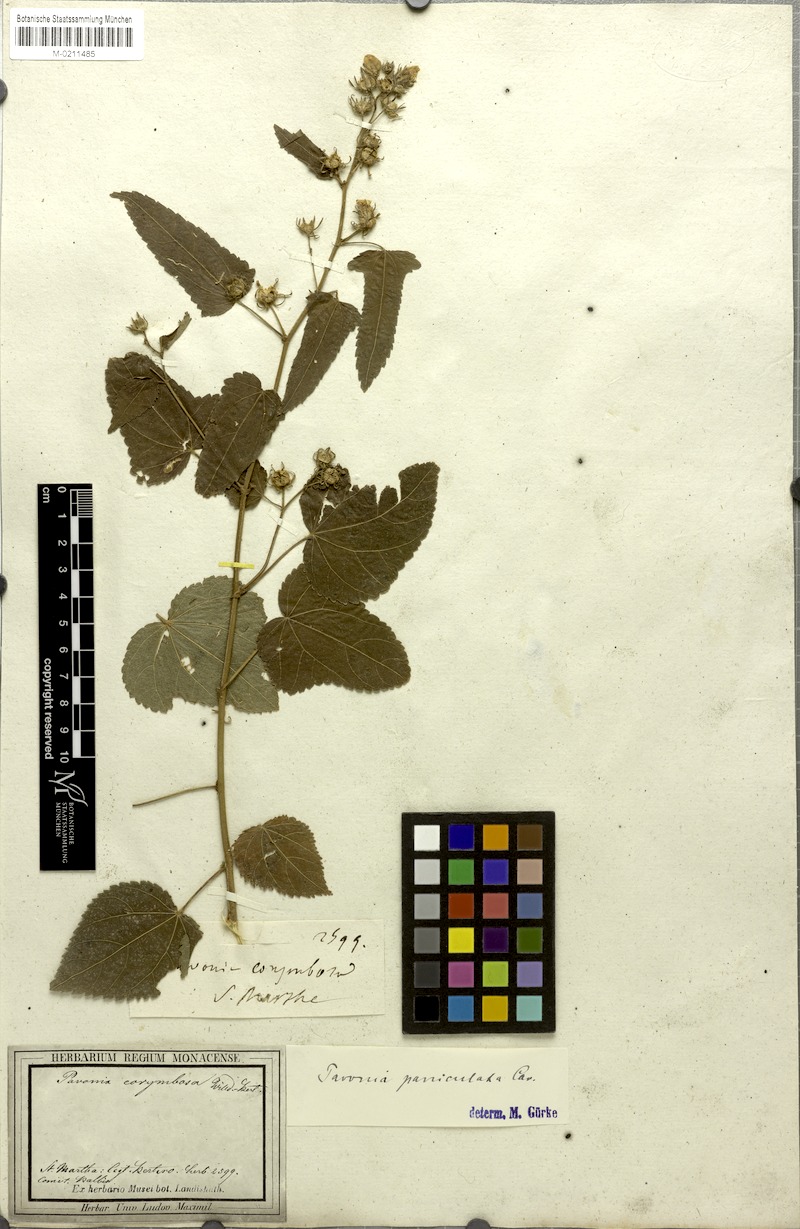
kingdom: Plantae
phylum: Tracheophyta
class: Magnoliopsida
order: Malvales
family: Malvaceae
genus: Pavonia
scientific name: Pavonia corymbosa
